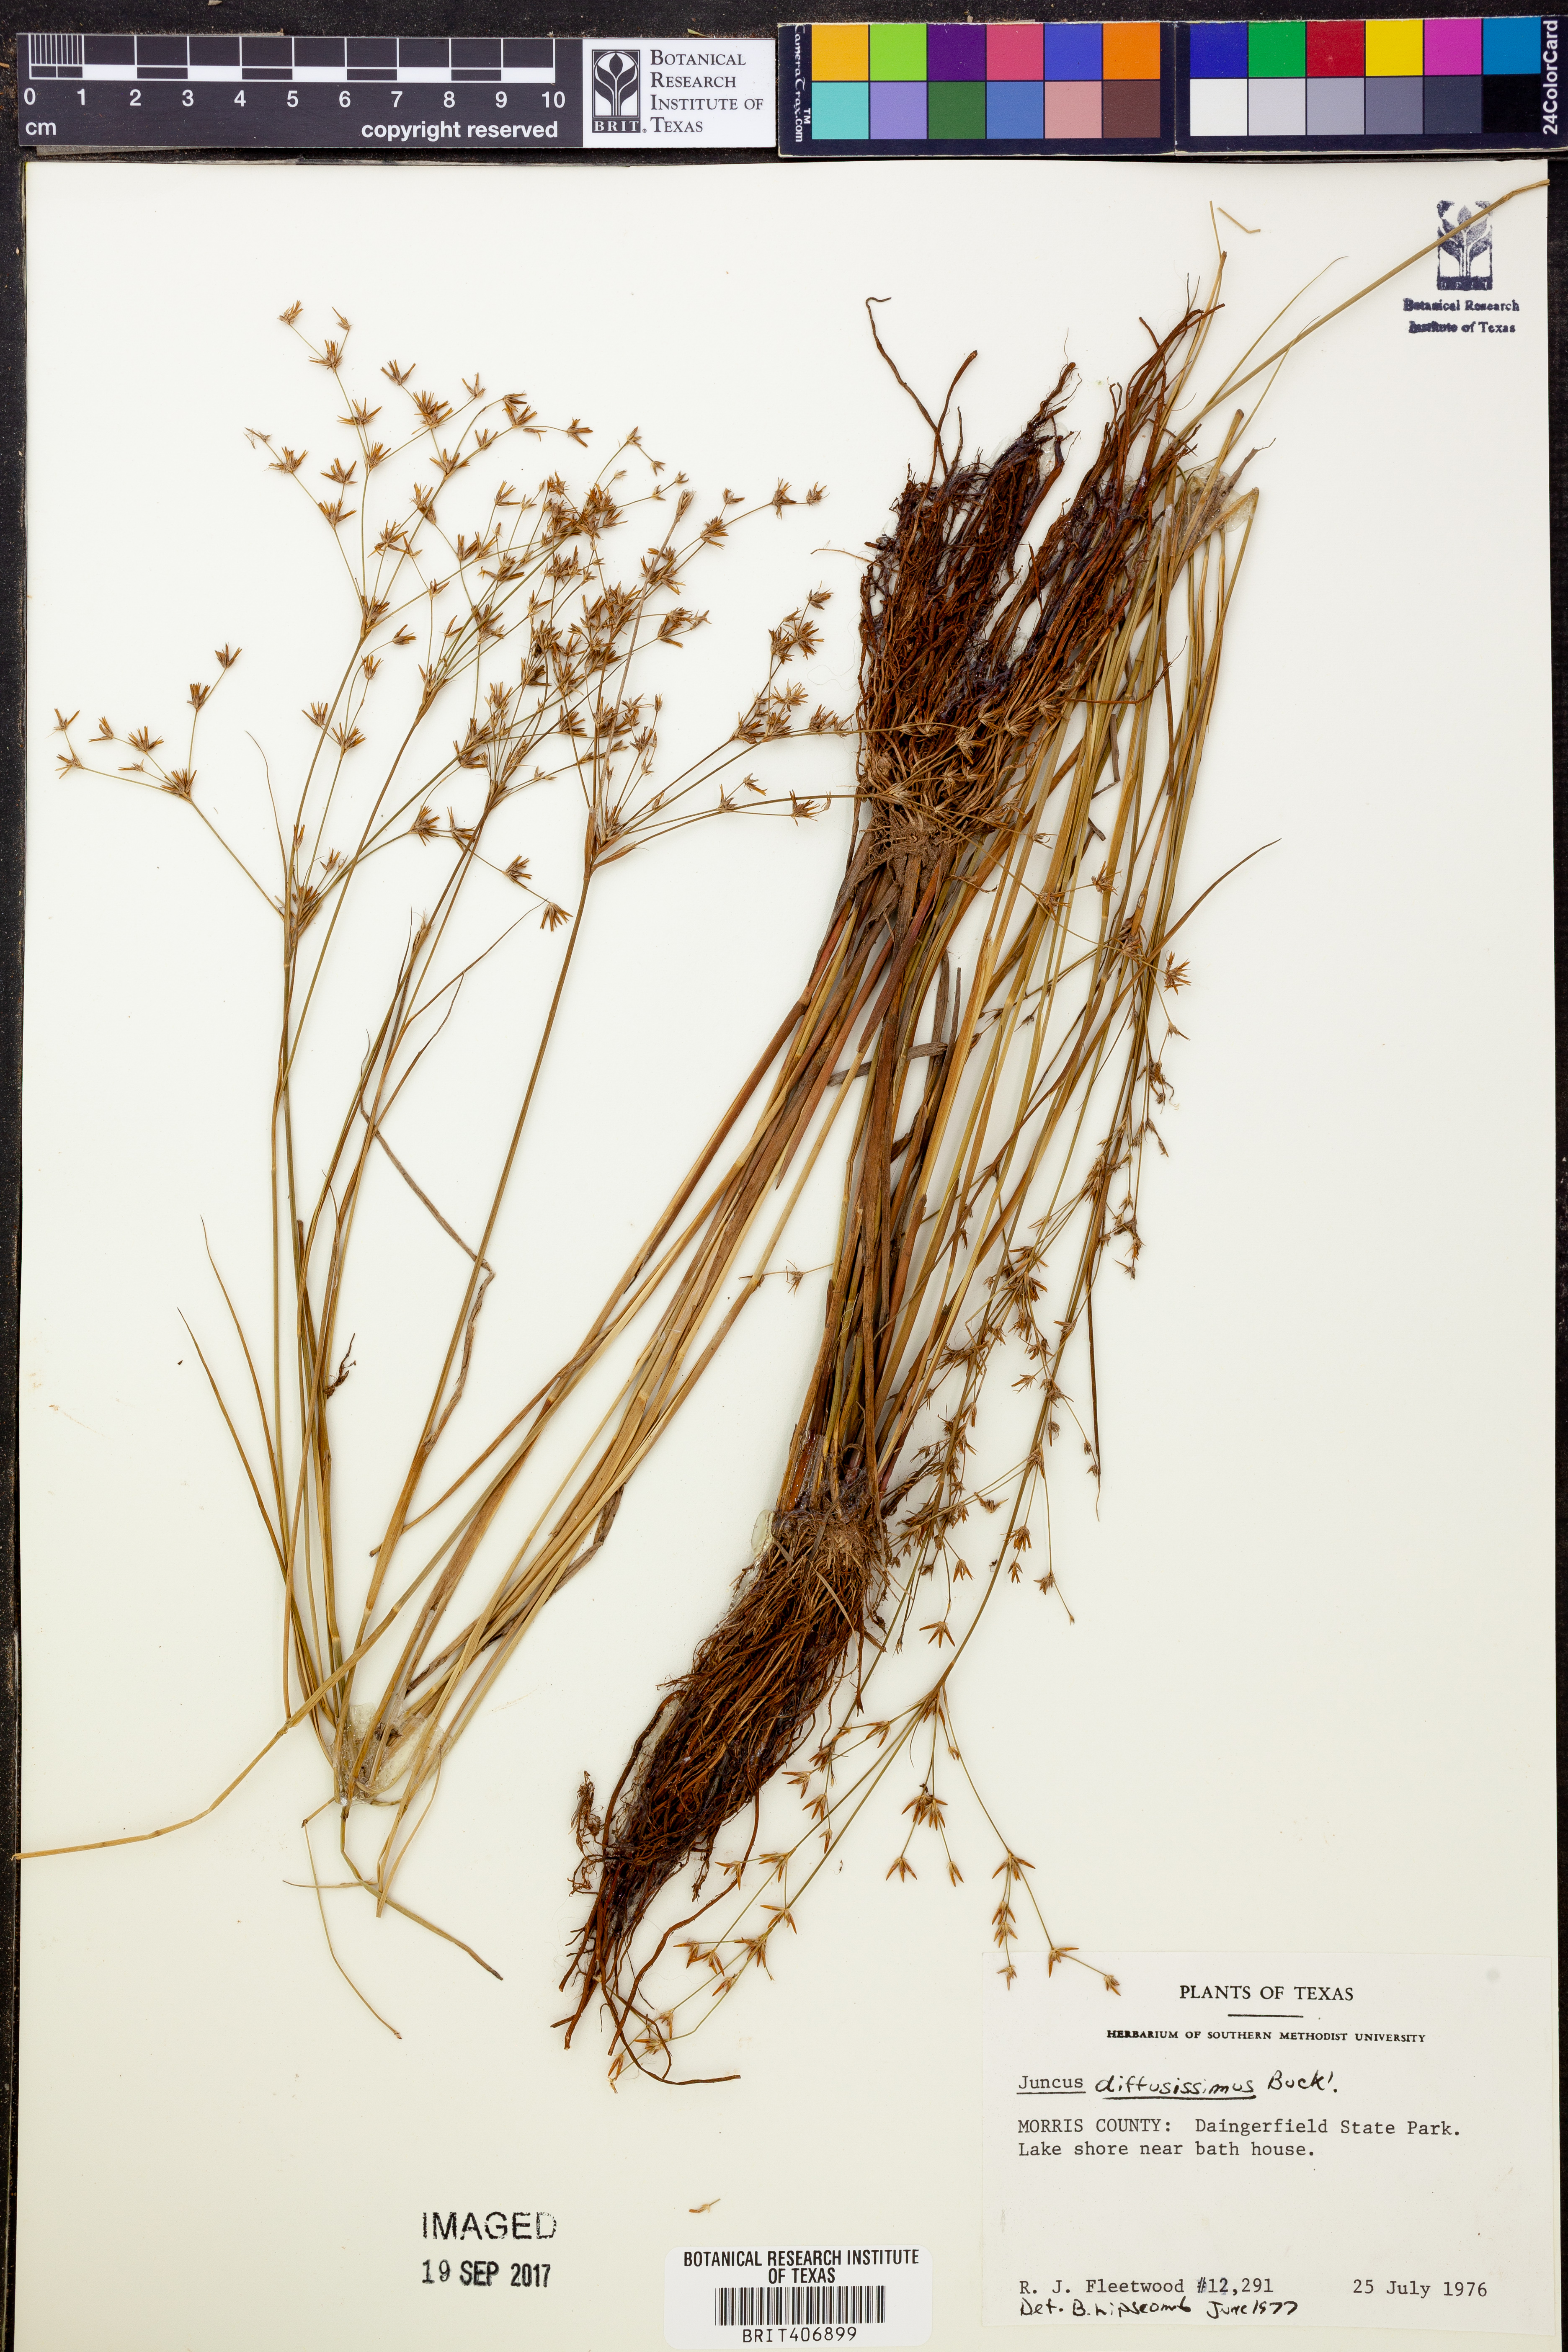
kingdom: Plantae
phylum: Tracheophyta
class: Liliopsida
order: Poales
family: Juncaceae
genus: Juncus
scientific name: Juncus diffusissimus
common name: Slimpod rush
